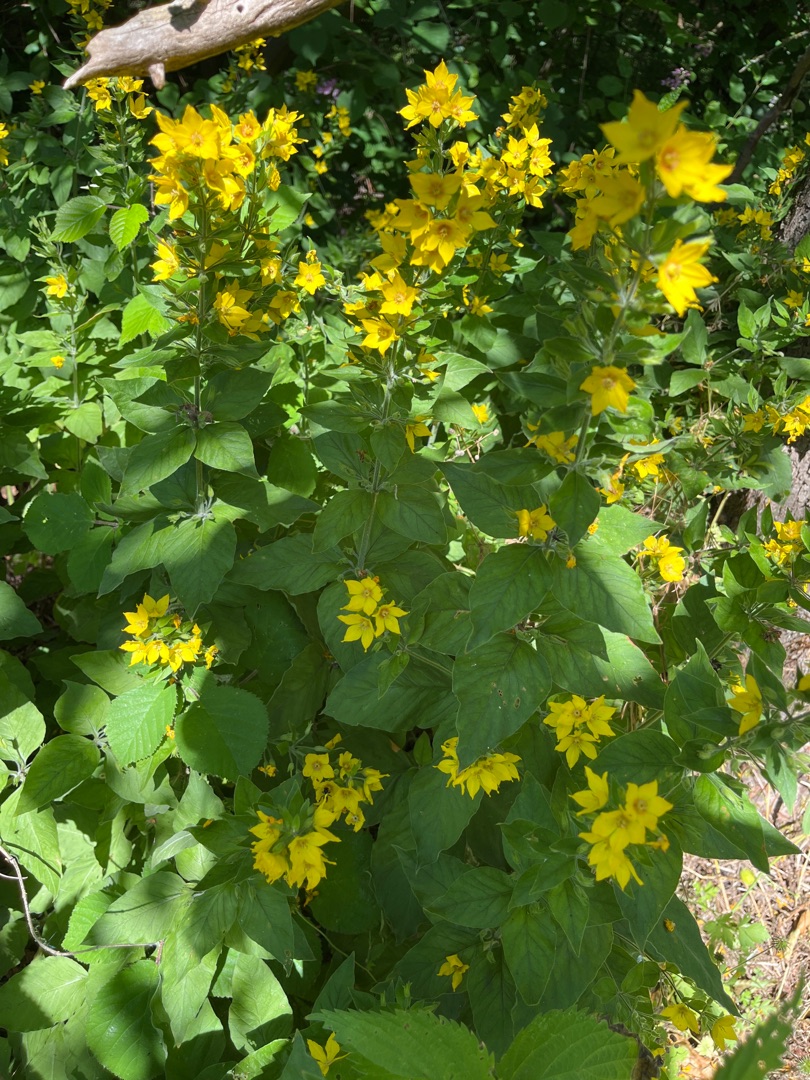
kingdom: Plantae
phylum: Tracheophyta
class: Magnoliopsida
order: Ericales
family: Primulaceae
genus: Lysimachia
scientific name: Lysimachia punctata
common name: Prikbladet fredløs
